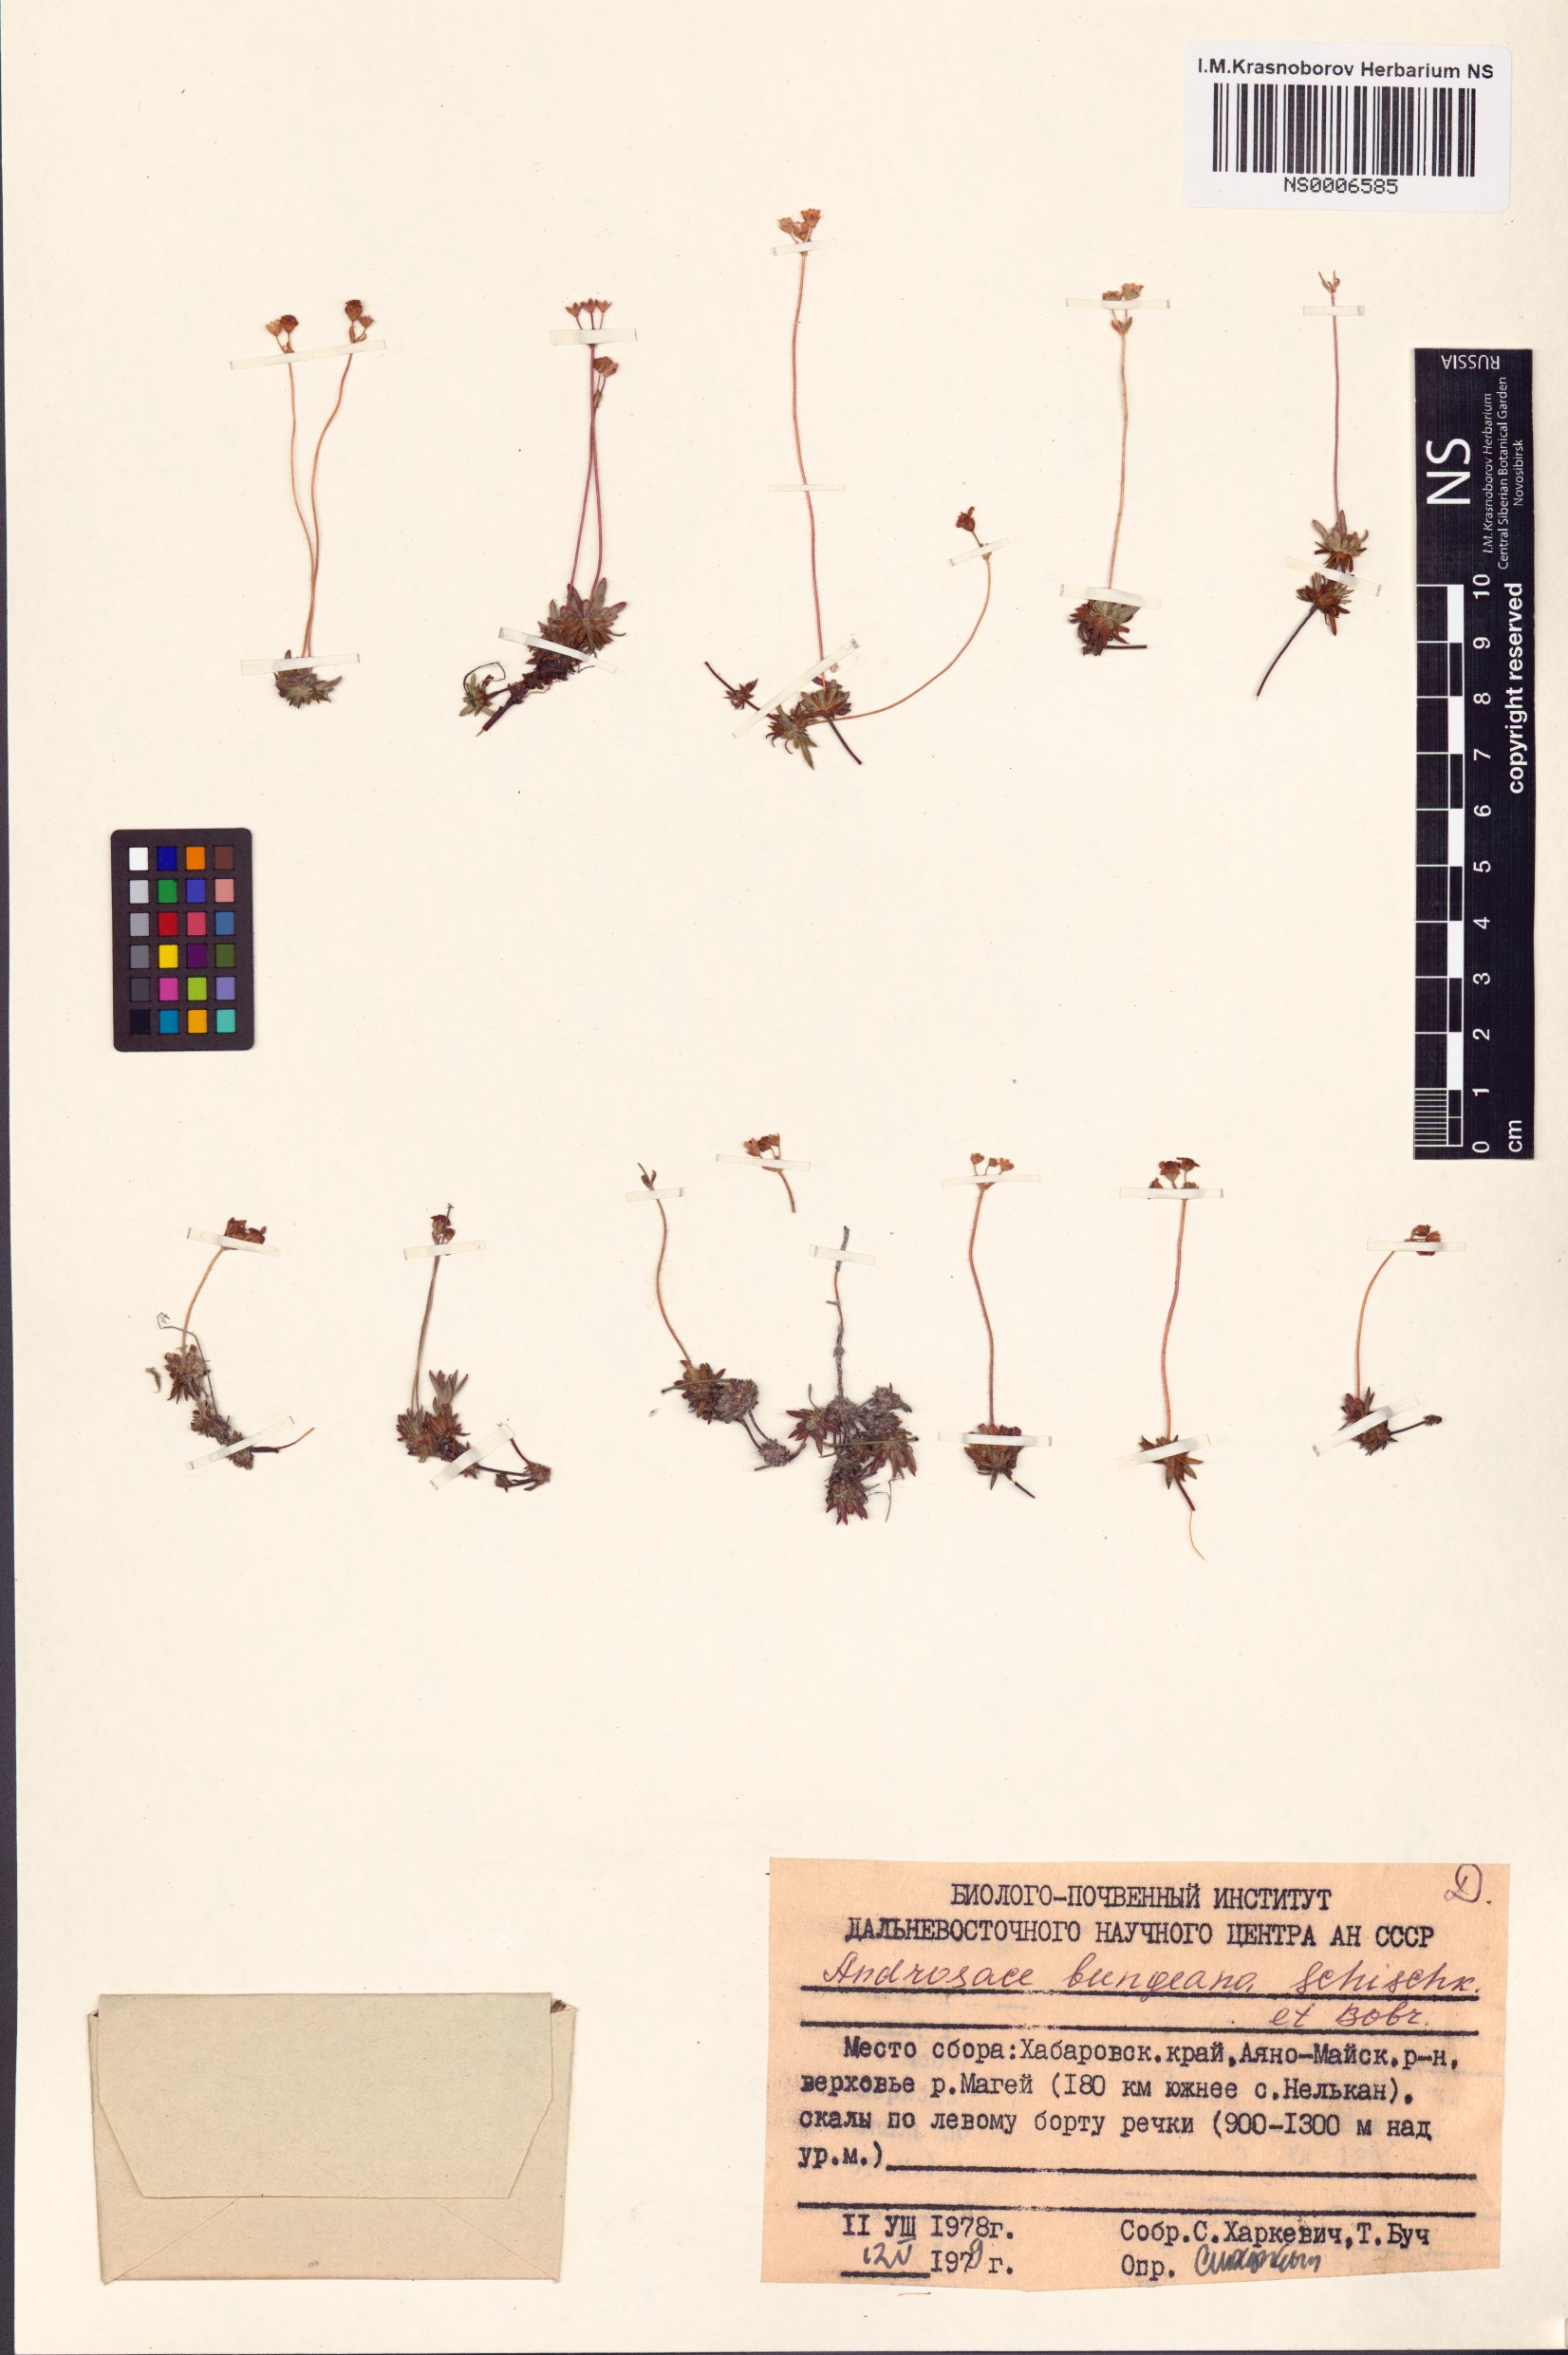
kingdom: Plantae
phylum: Tracheophyta
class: Magnoliopsida
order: Ericales
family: Primulaceae
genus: Androsace
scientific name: Androsace bungeana
